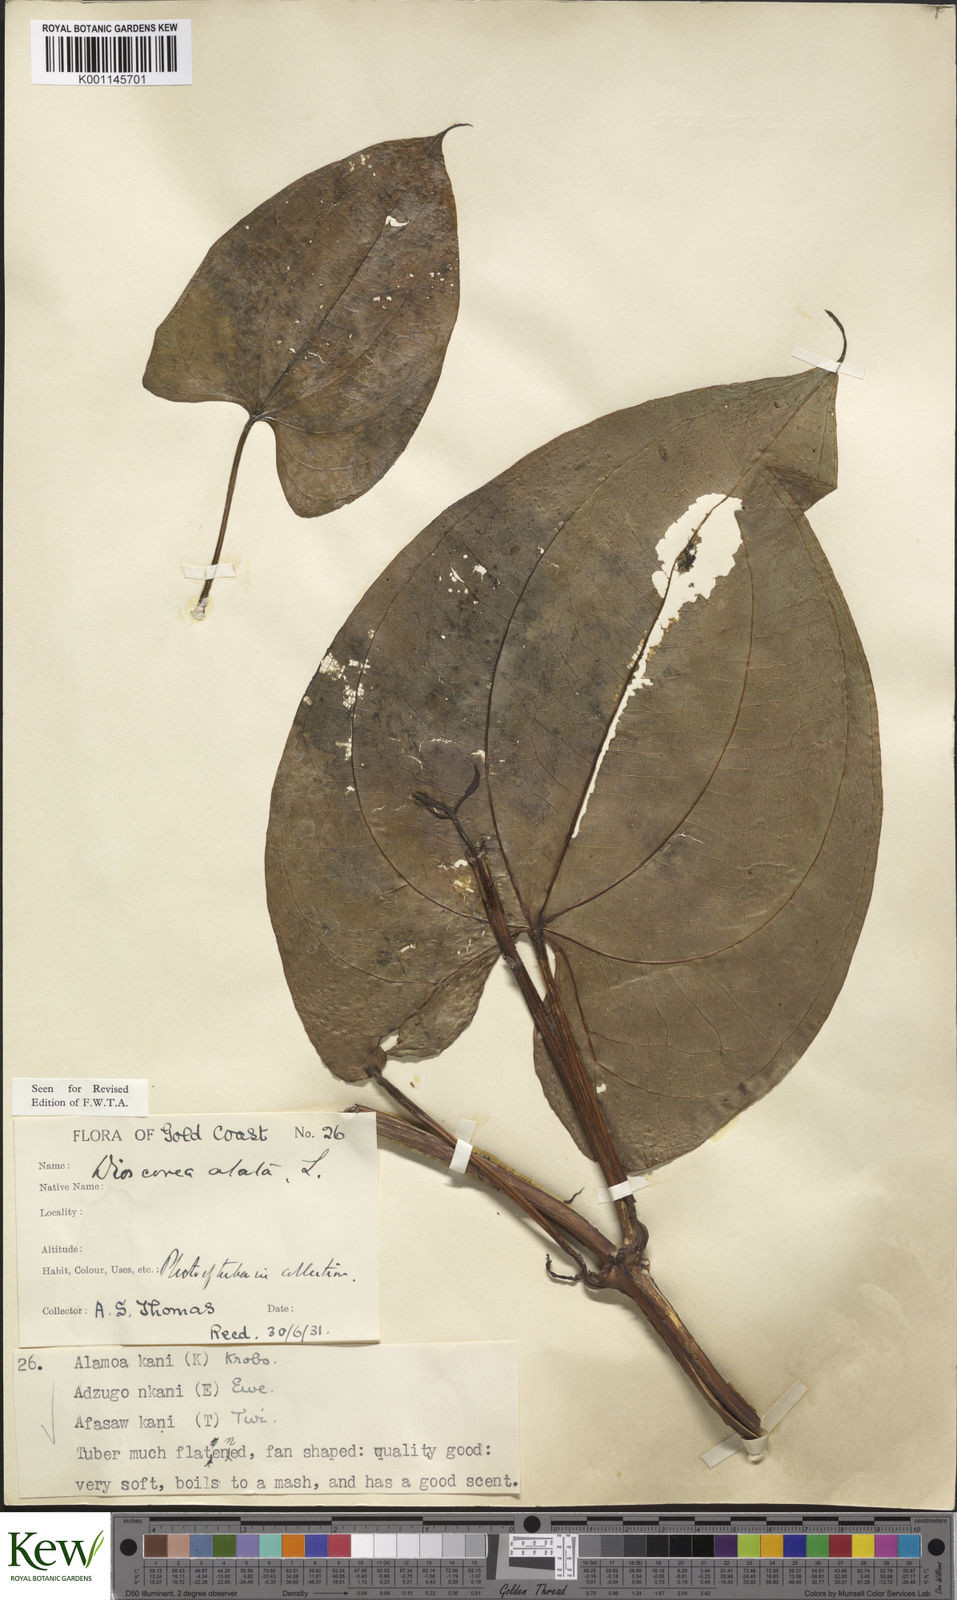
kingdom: Plantae
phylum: Tracheophyta
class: Liliopsida
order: Dioscoreales
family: Dioscoreaceae
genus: Dioscorea
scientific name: Dioscorea alata
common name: Water yam
